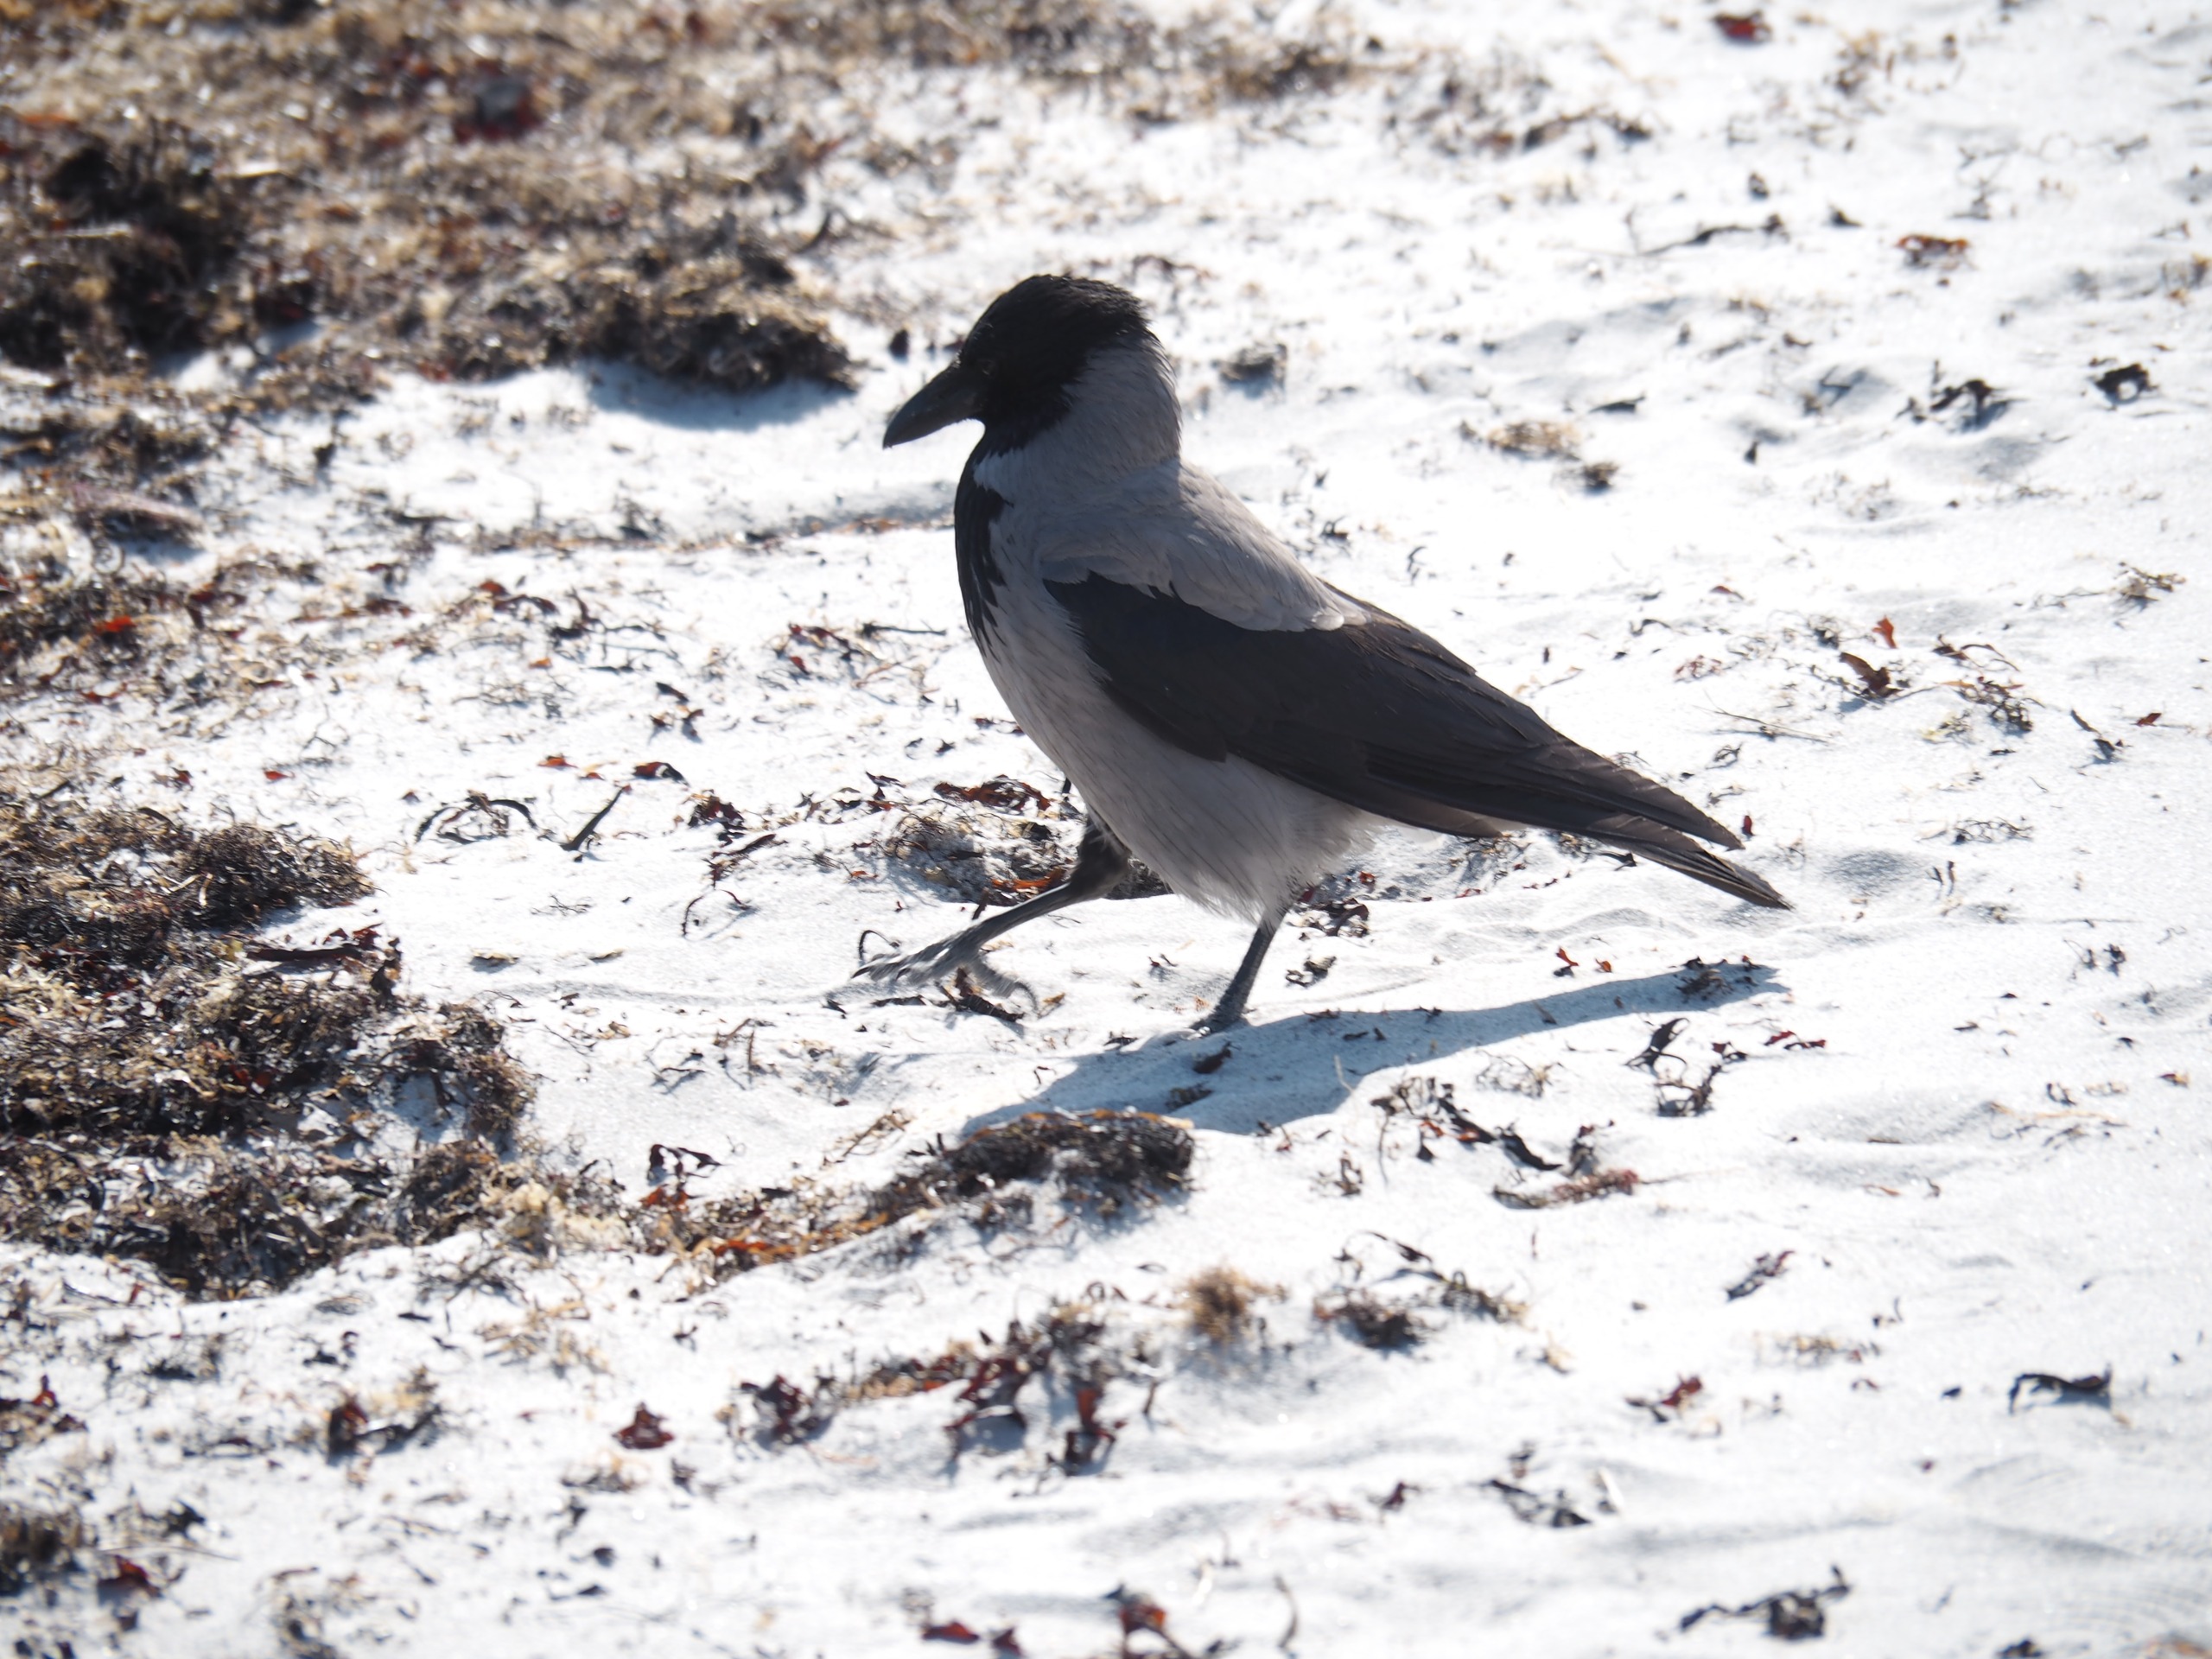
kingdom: Animalia
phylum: Chordata
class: Aves
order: Passeriformes
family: Corvidae
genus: Corvus
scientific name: Corvus cornix
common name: Gråkrage
